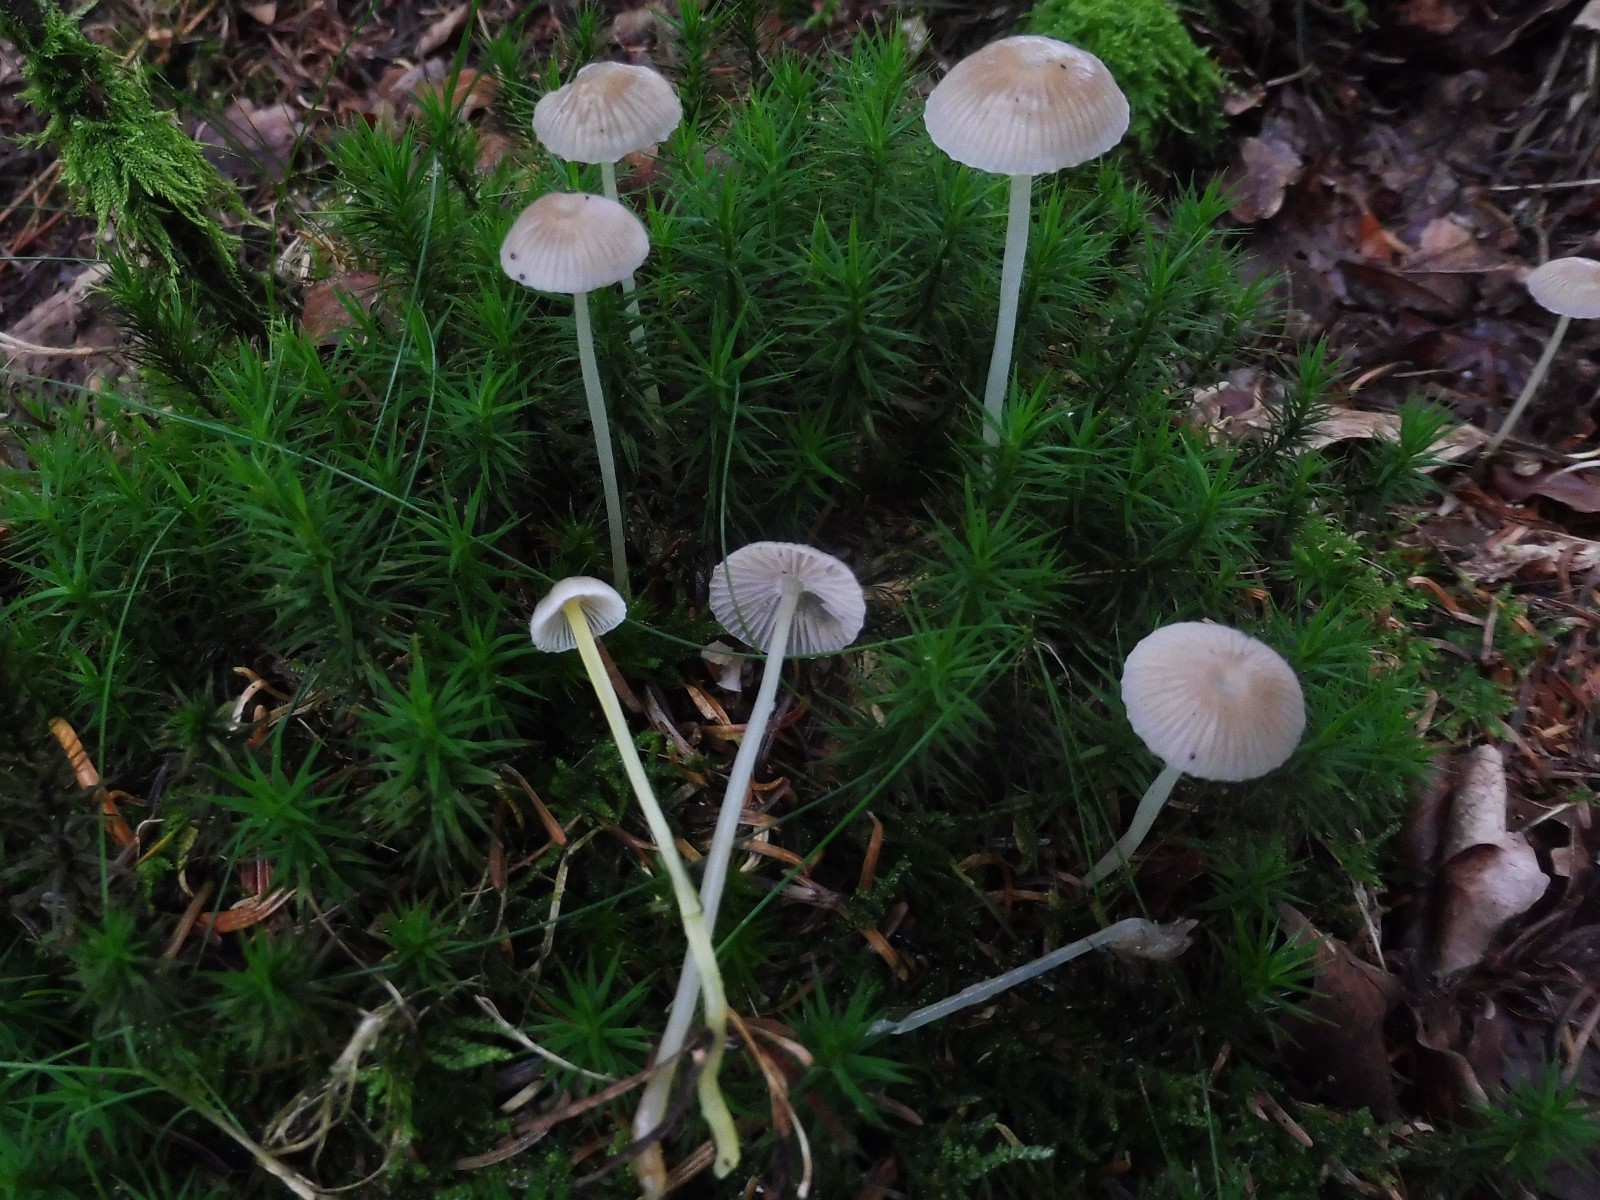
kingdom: Fungi
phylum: Basidiomycota
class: Agaricomycetes
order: Agaricales
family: Mycenaceae
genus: Mycena
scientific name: Mycena epipterygia
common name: gulstokket huesvamp
